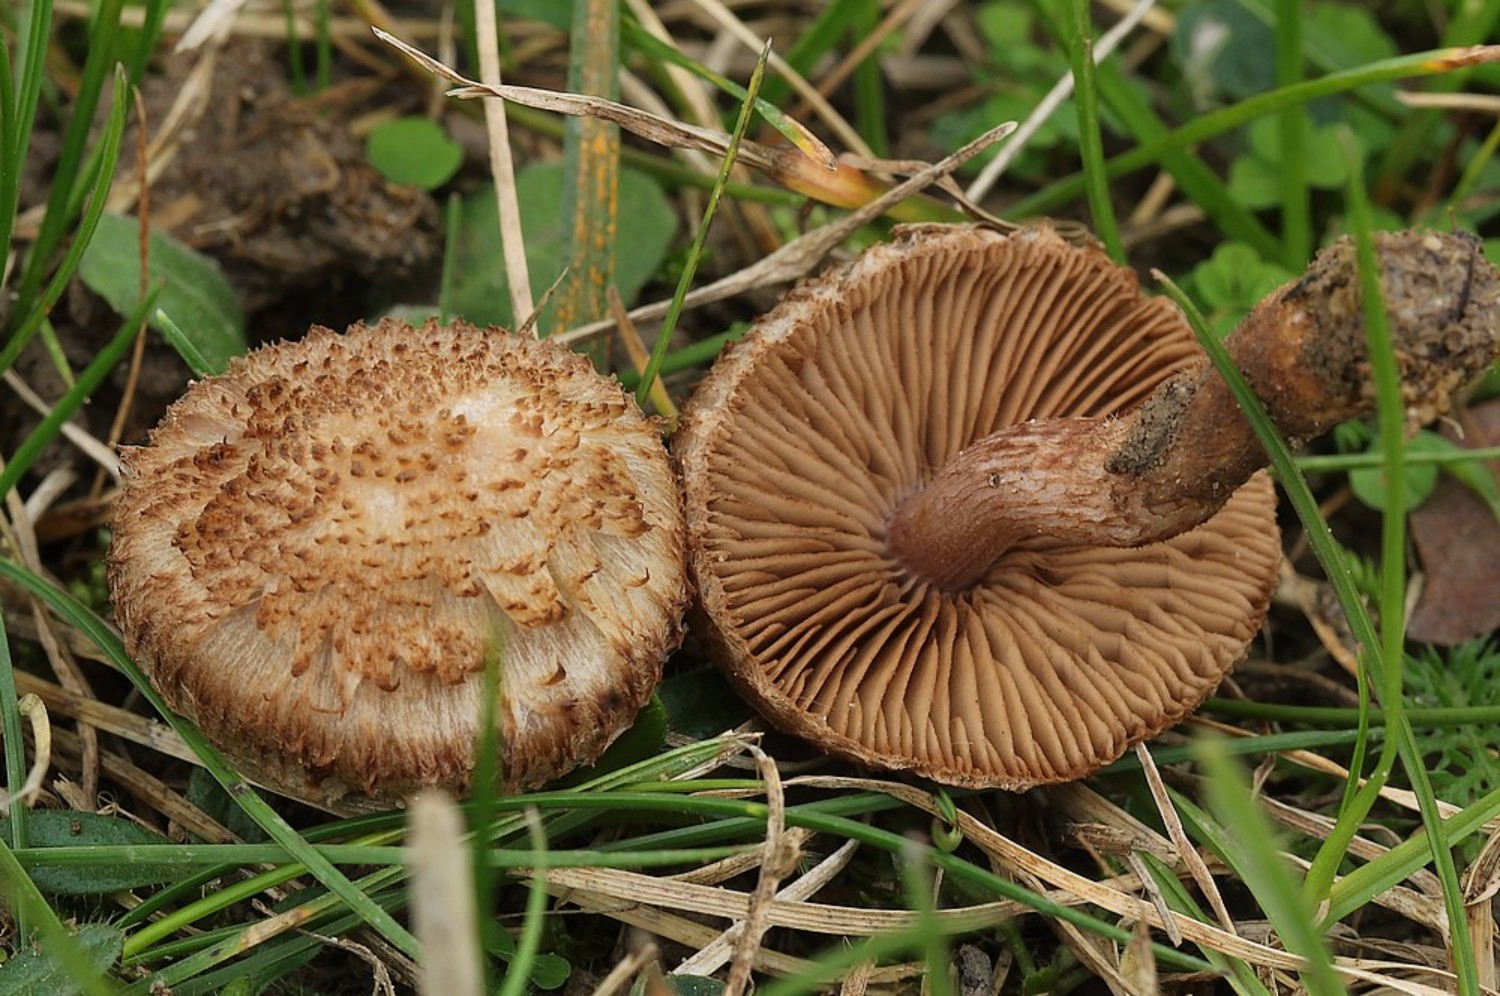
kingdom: Fungi
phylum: Basidiomycota
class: Agaricomycetes
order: Agaricales
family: Inocybaceae
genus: Inocybe
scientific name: Inocybe
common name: trævlhat
